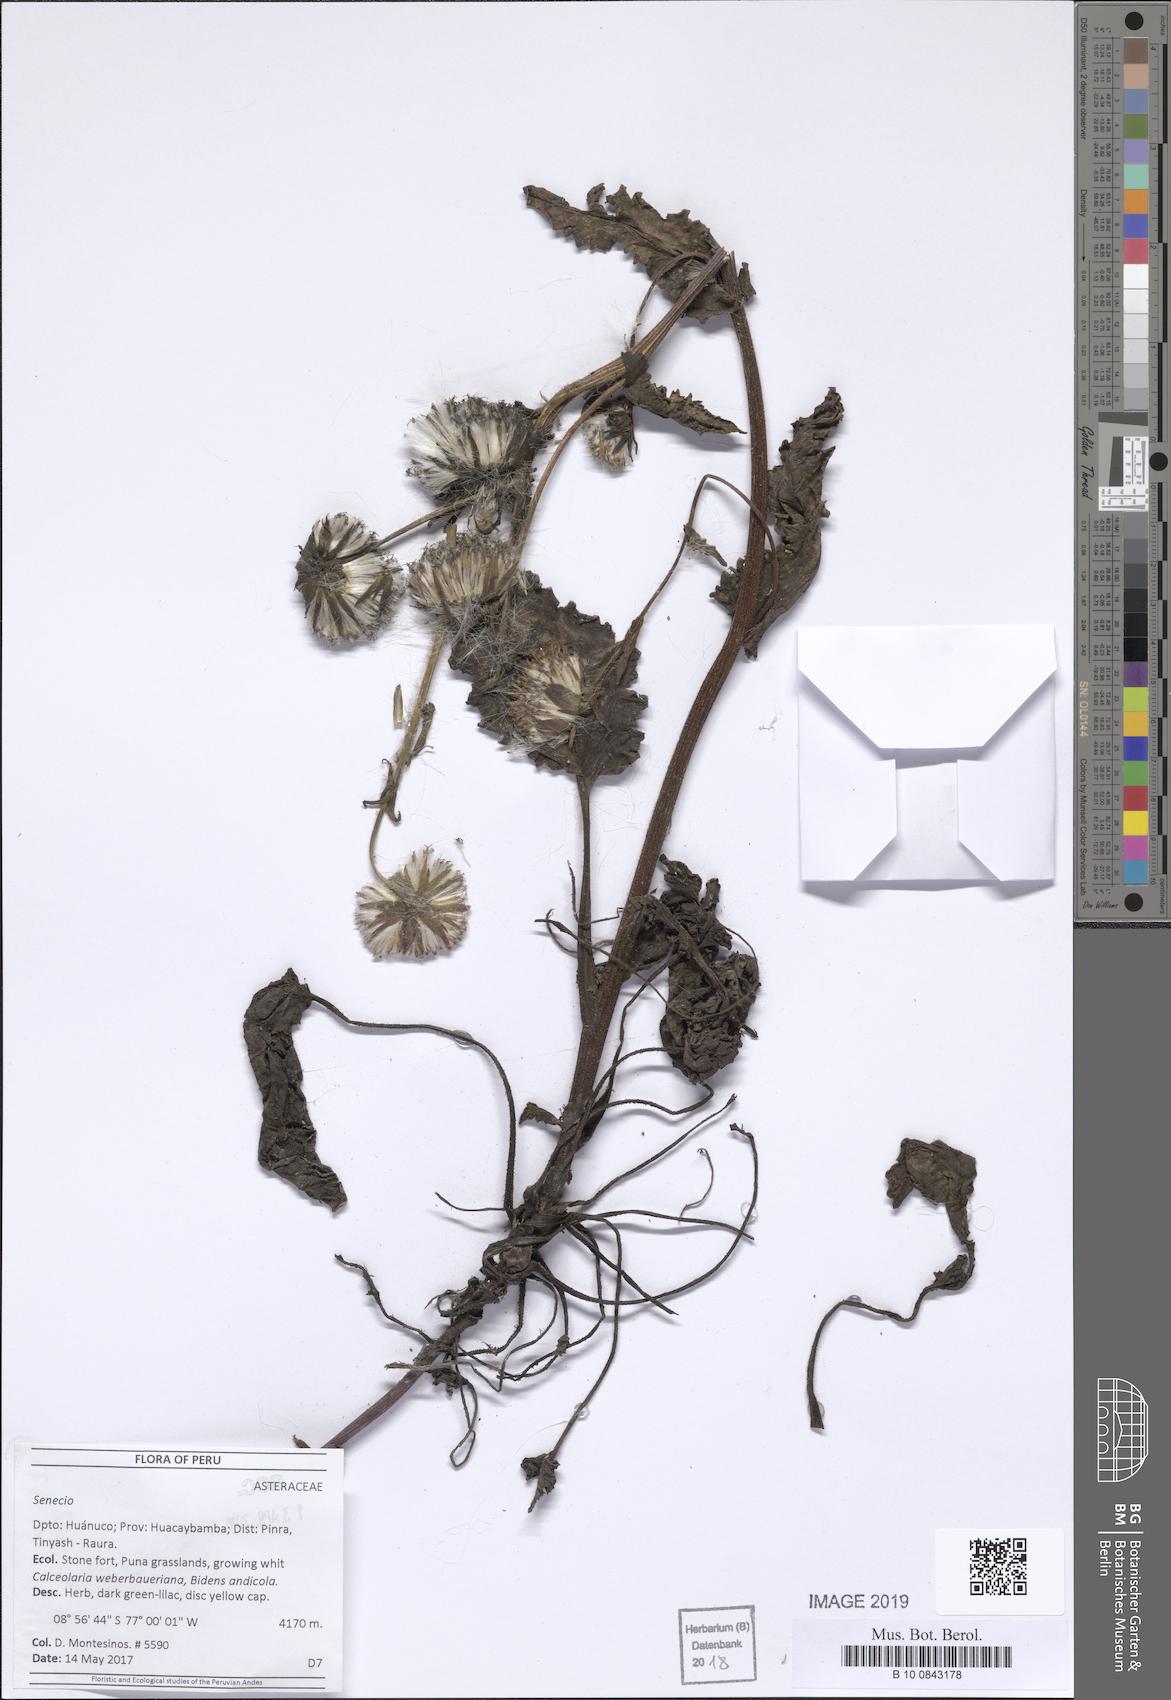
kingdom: Plantae
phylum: Tracheophyta
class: Magnoliopsida
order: Asterales
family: Asteraceae
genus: Senecio
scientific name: Senecio rhizomatus
